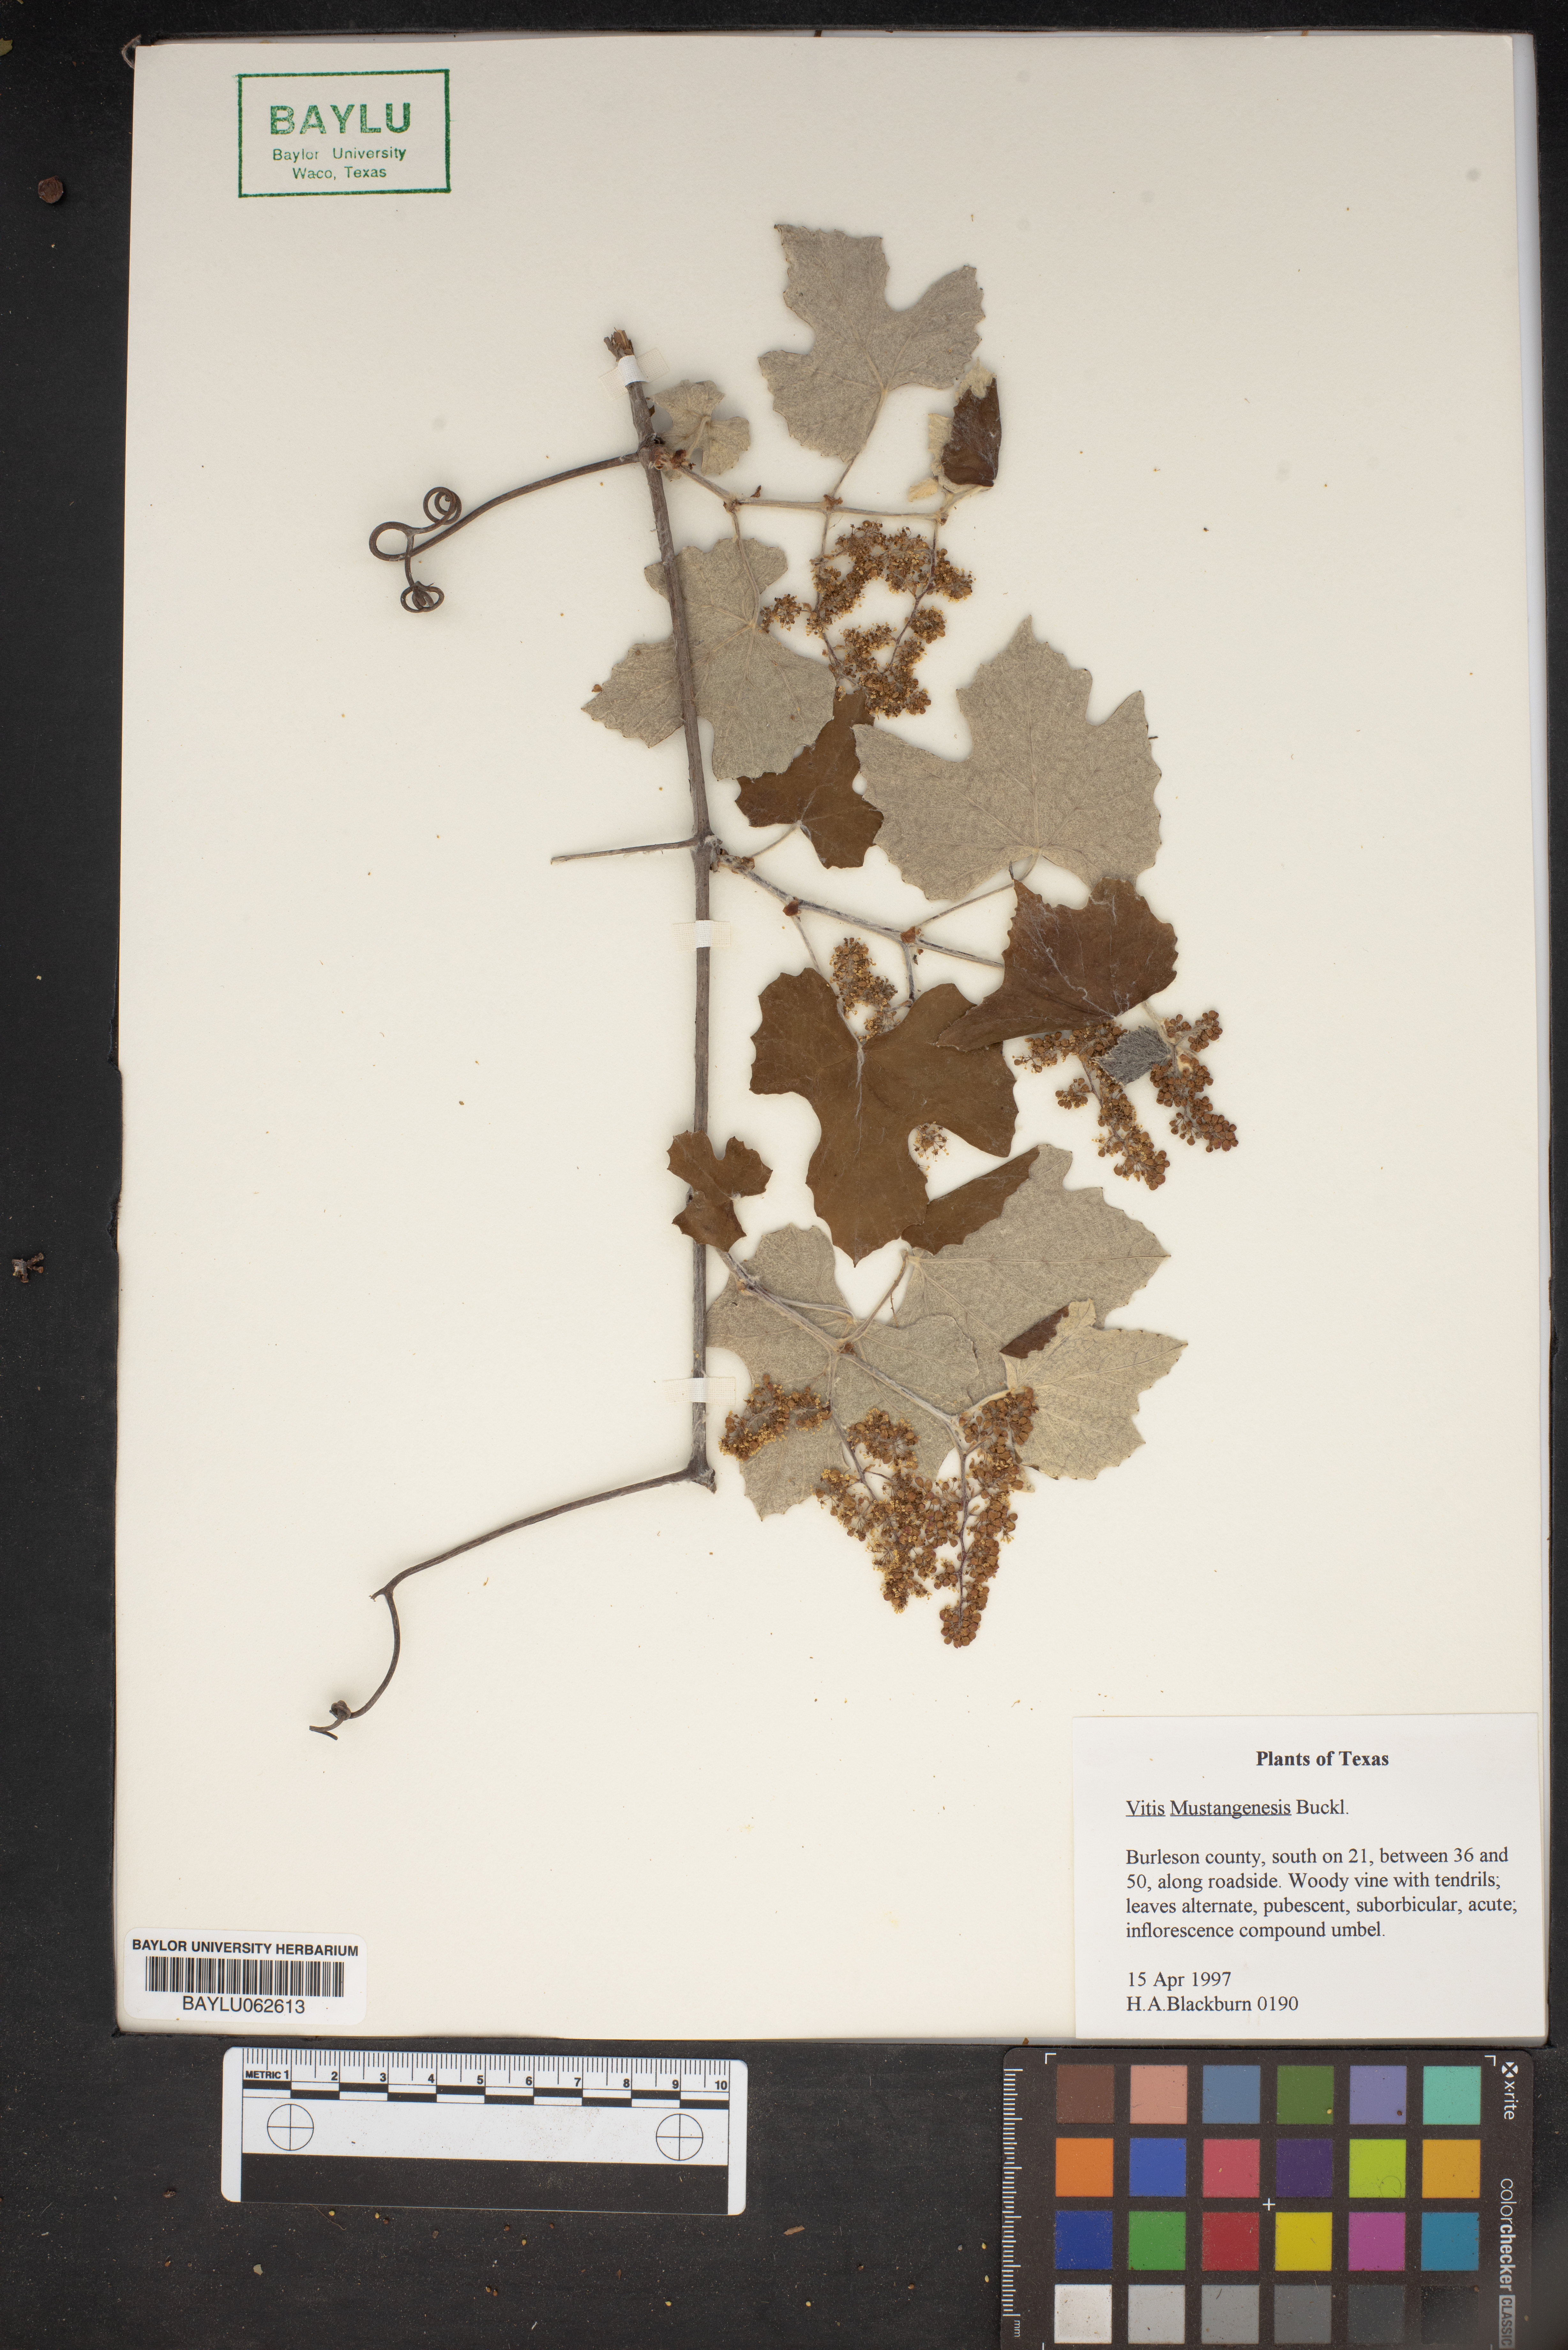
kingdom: Plantae
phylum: Tracheophyta
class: Magnoliopsida
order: Vitales
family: Vitaceae
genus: Vitis
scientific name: Vitis mustangensis
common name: Mustang grape
